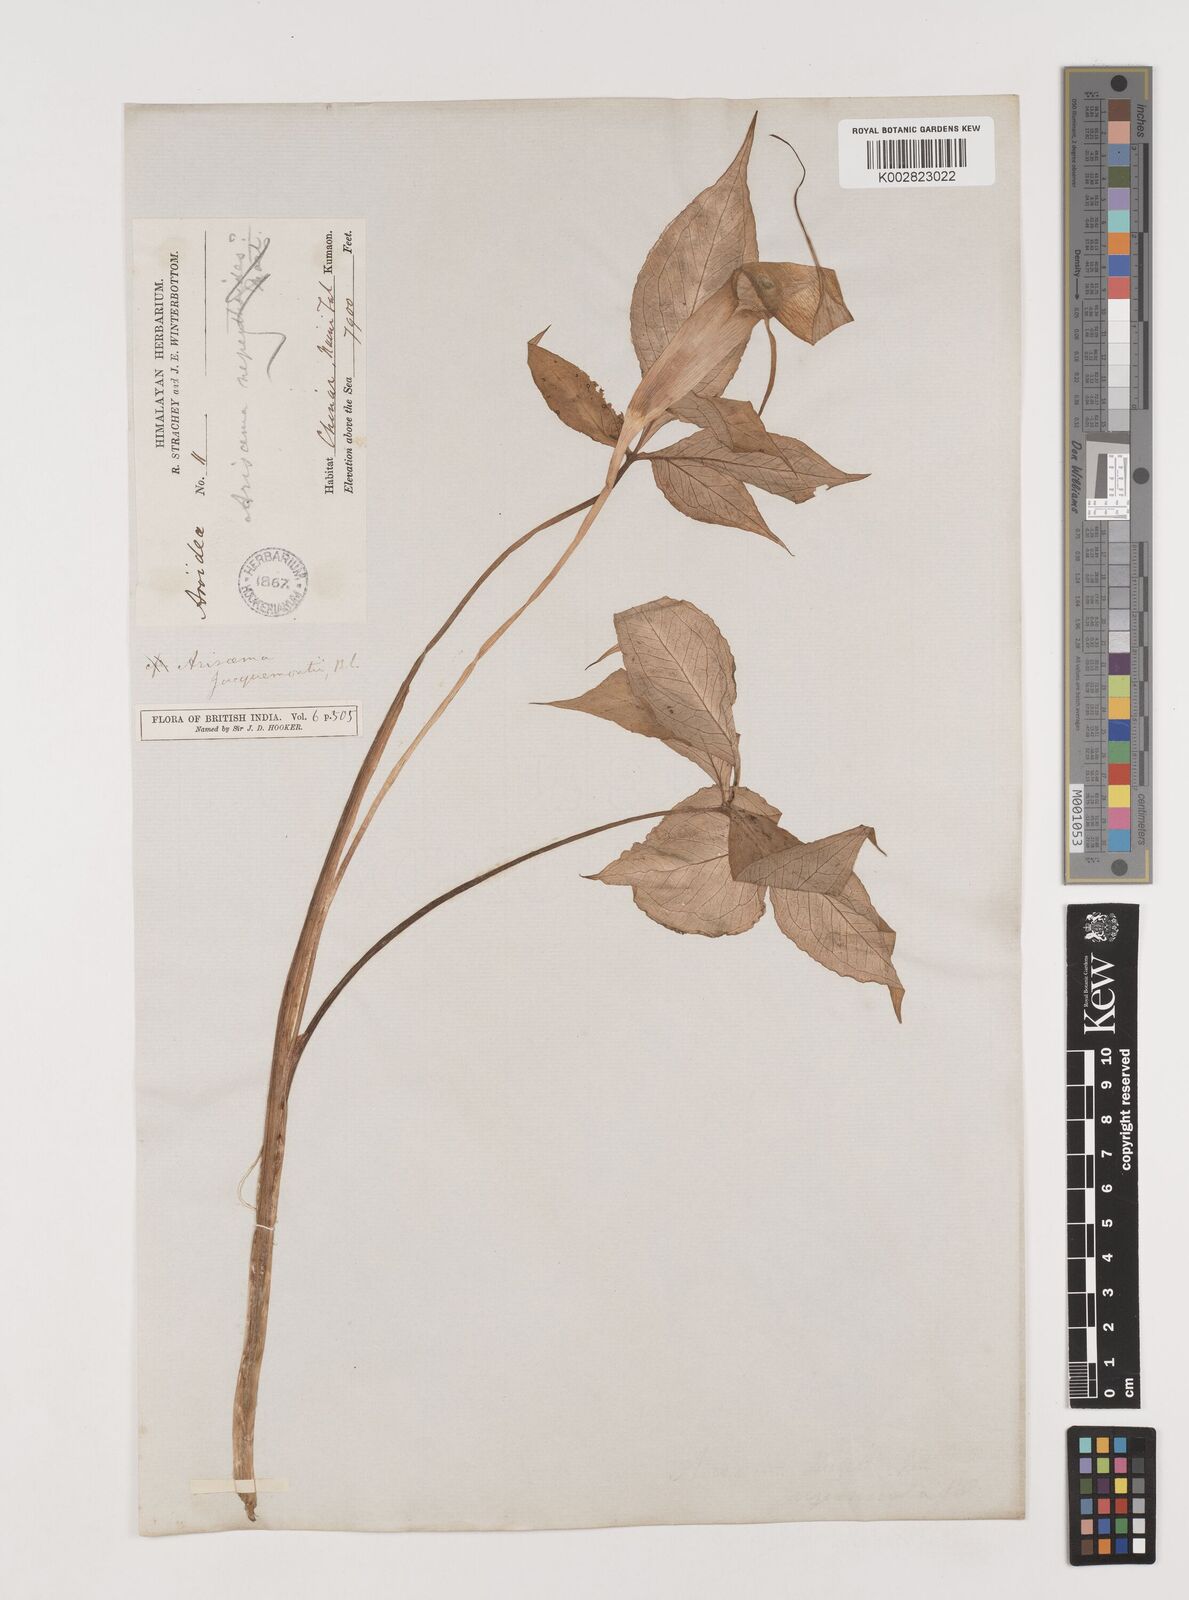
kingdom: Plantae
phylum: Tracheophyta
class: Liliopsida
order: Alismatales
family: Araceae
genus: Arisaema
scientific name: Arisaema jacquemontii
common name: Jacquemont's cobra-lily
